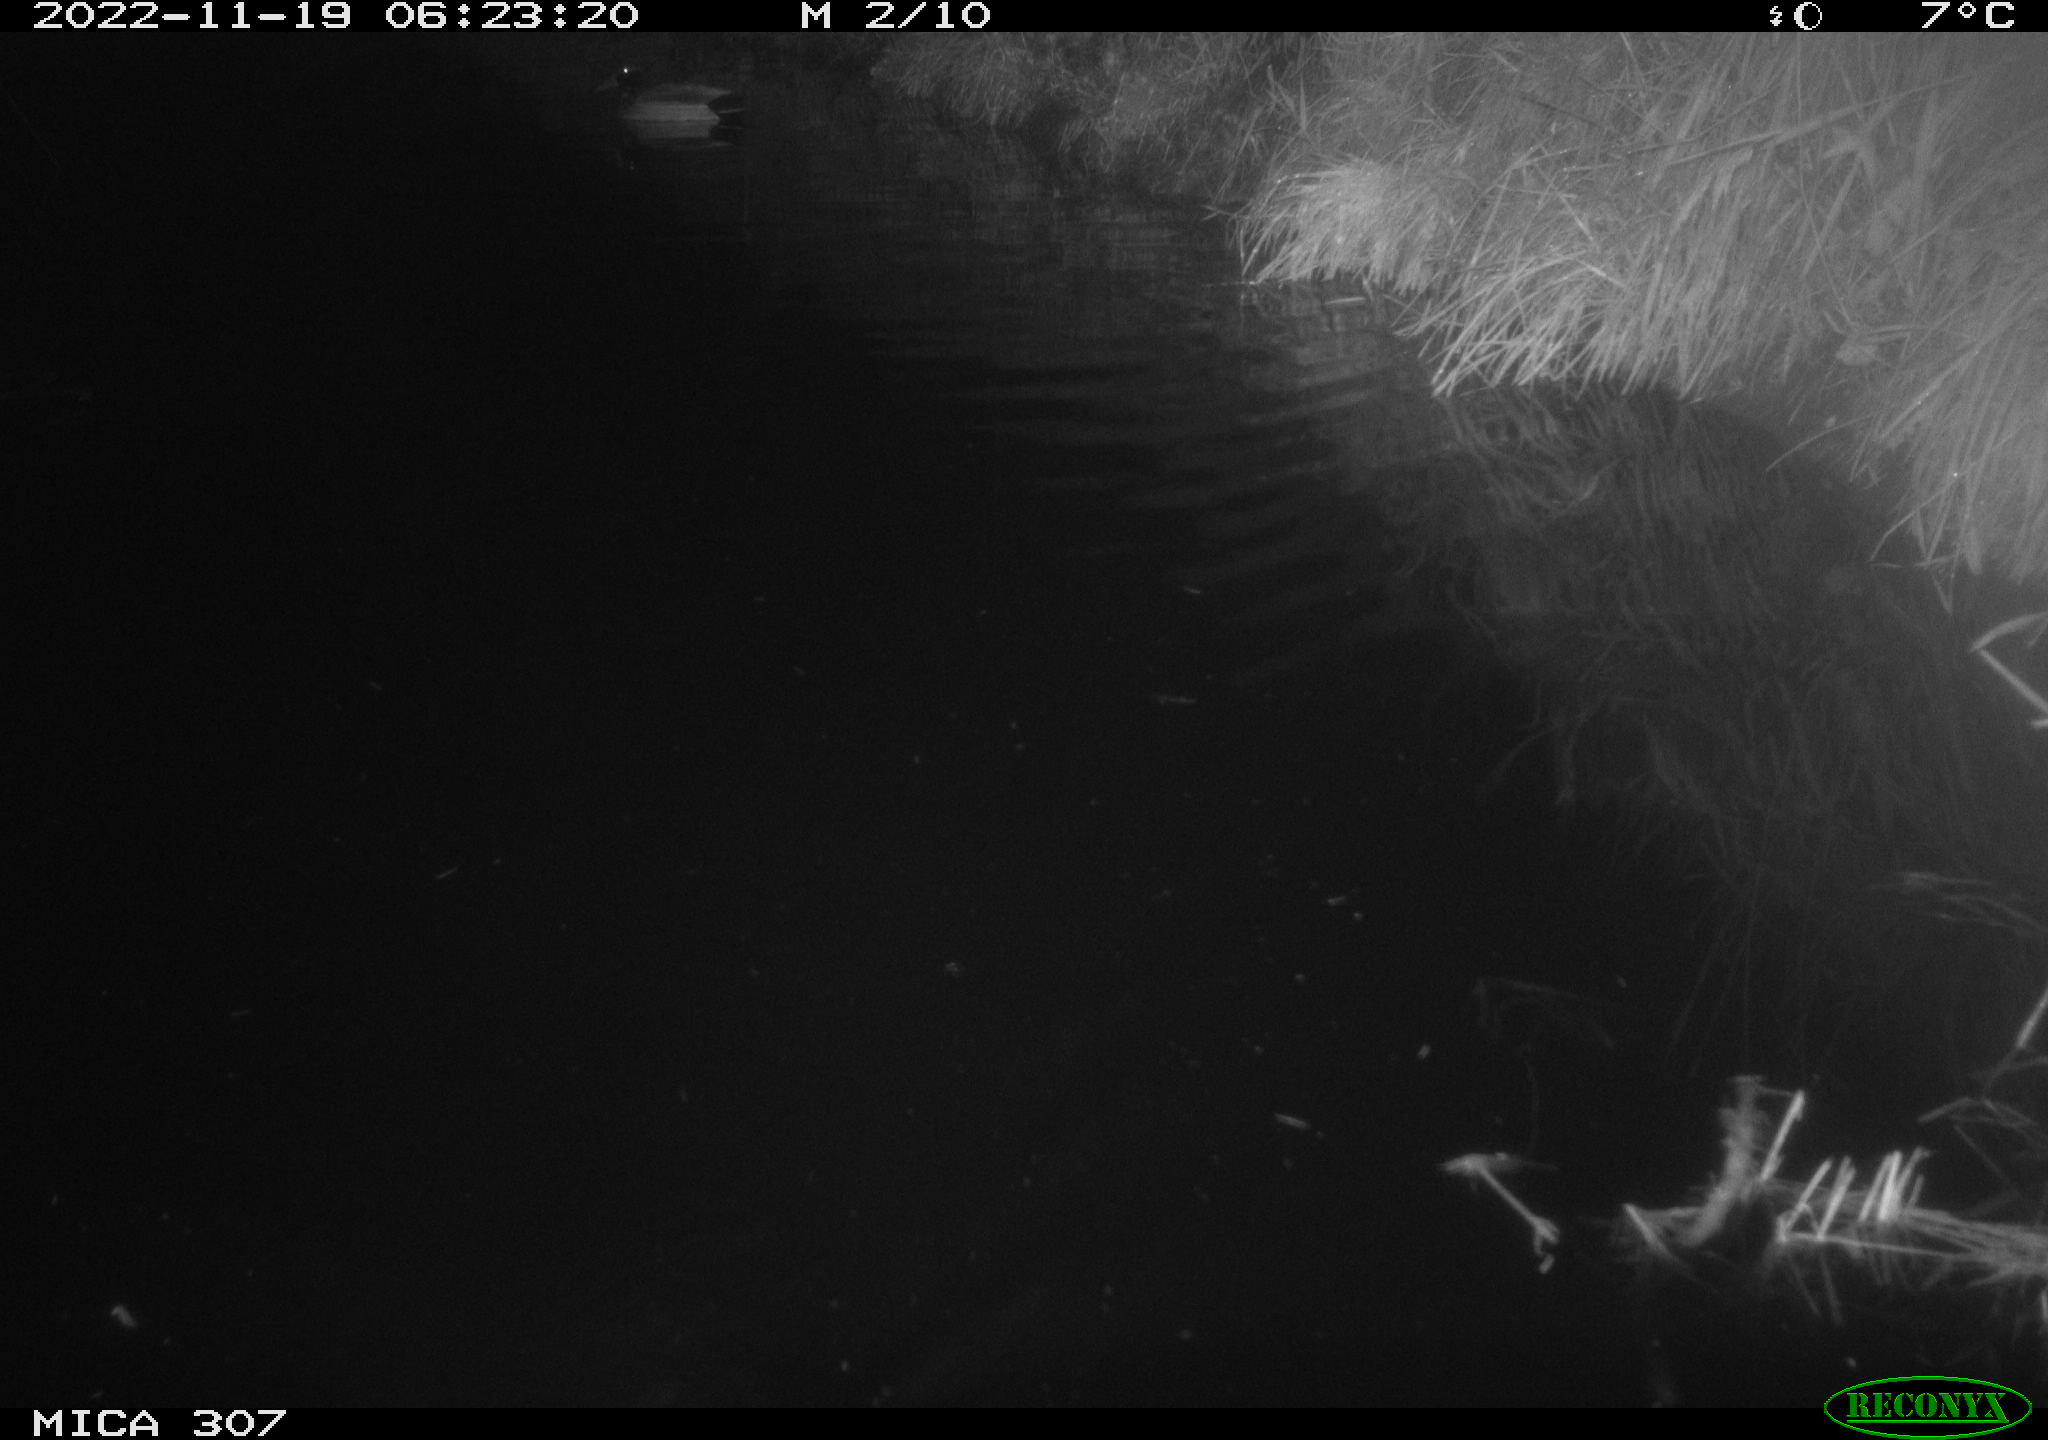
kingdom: Animalia
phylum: Chordata
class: Mammalia
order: Rodentia
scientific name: Rodentia
